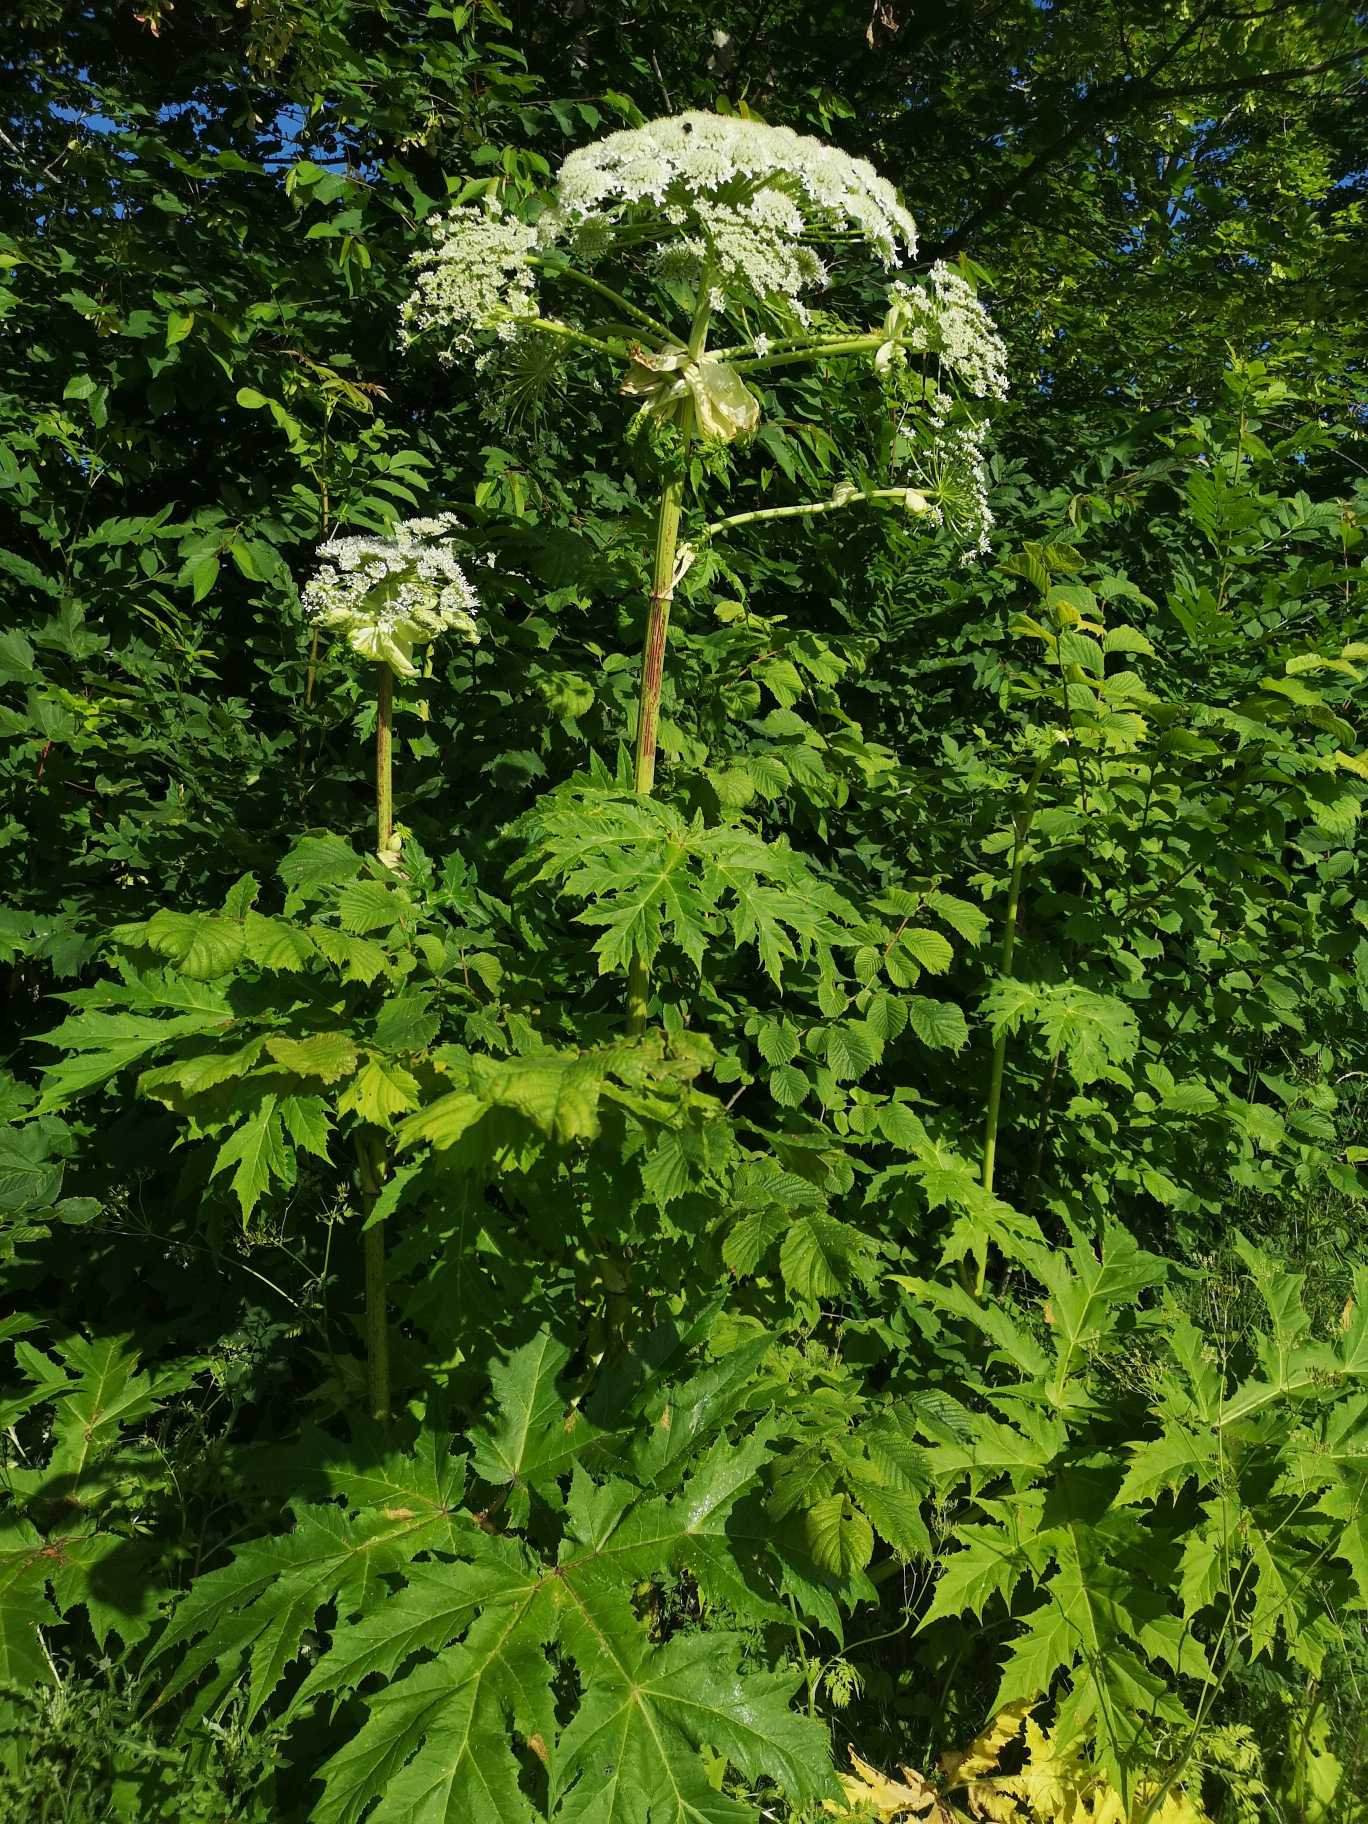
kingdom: Plantae
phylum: Tracheophyta
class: Magnoliopsida
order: Apiales
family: Apiaceae
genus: Heracleum
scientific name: Heracleum mantegazzianum
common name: Kæmpe-bjørneklo
